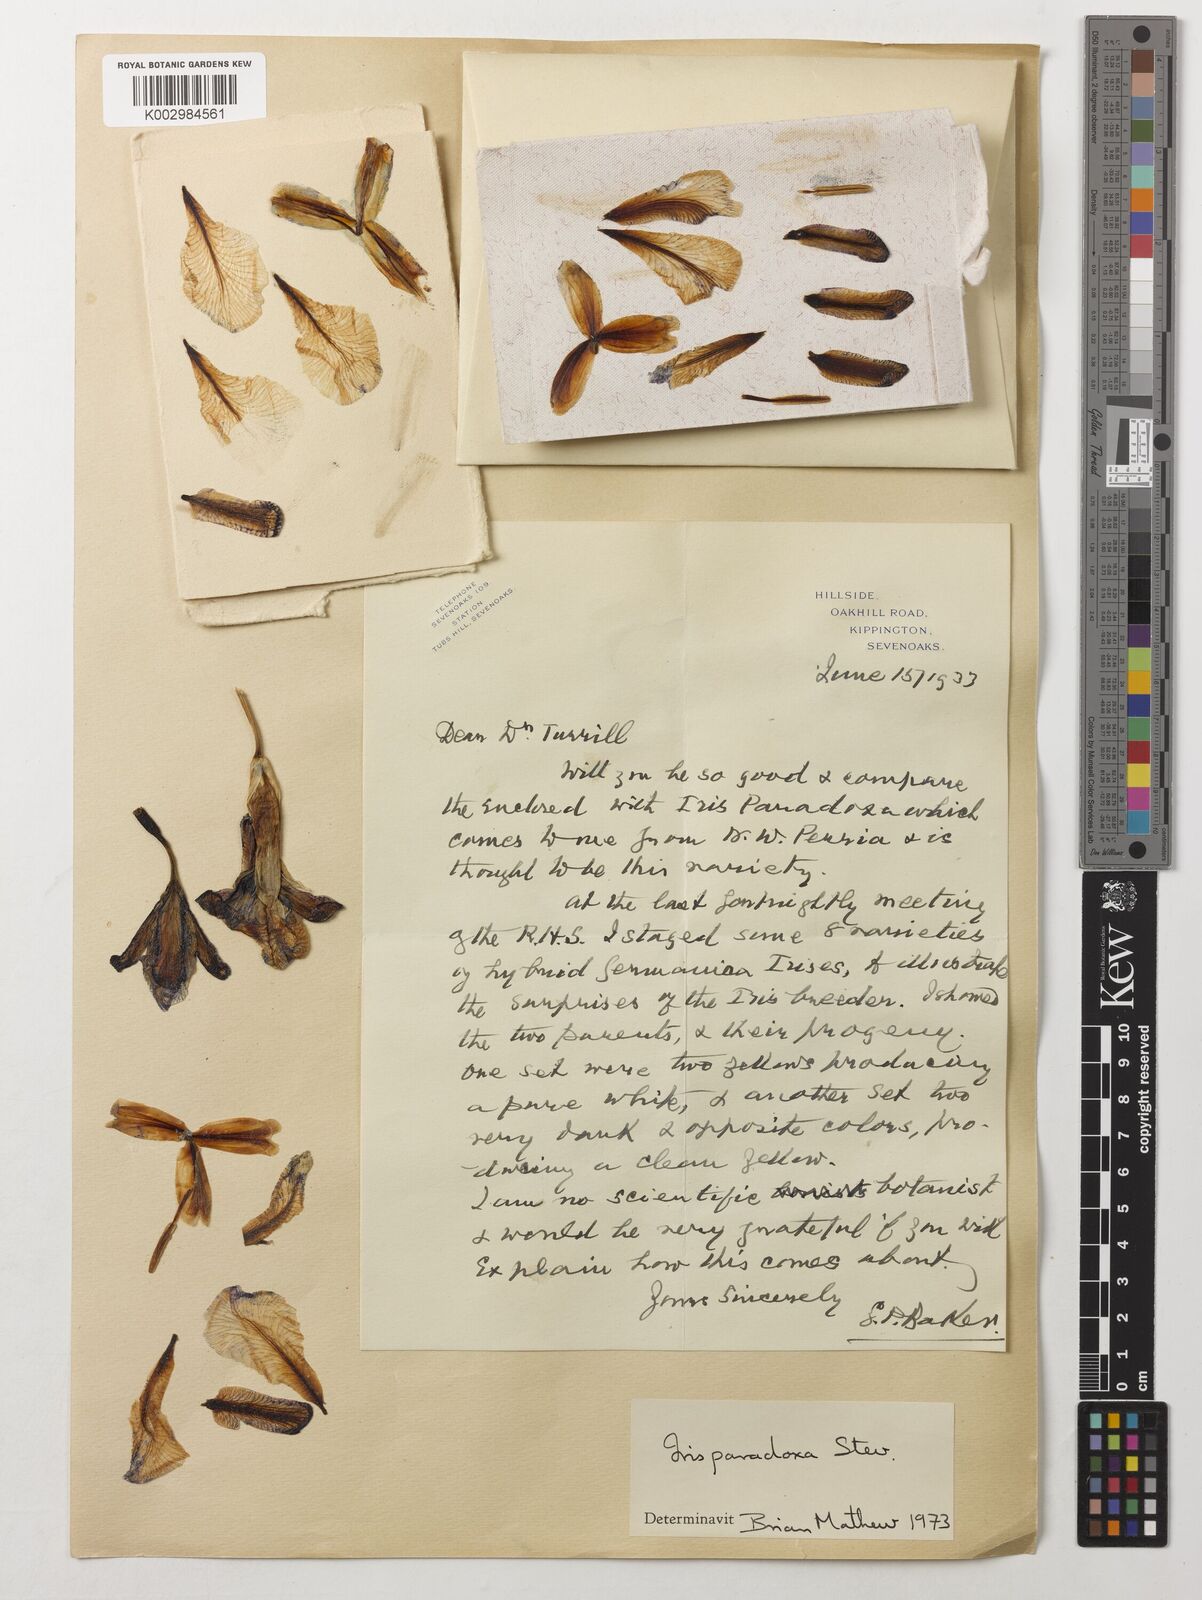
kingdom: Plantae
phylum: Tracheophyta
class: Liliopsida
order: Asparagales
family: Iridaceae
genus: Iris
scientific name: Iris paradoxa
